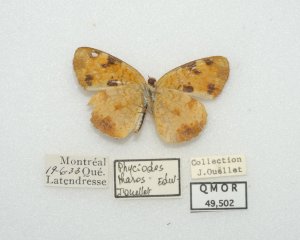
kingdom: Animalia
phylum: Arthropoda
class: Insecta
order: Lepidoptera
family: Nymphalidae
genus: Phyciodes
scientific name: Phyciodes tharos
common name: Northern Crescent
